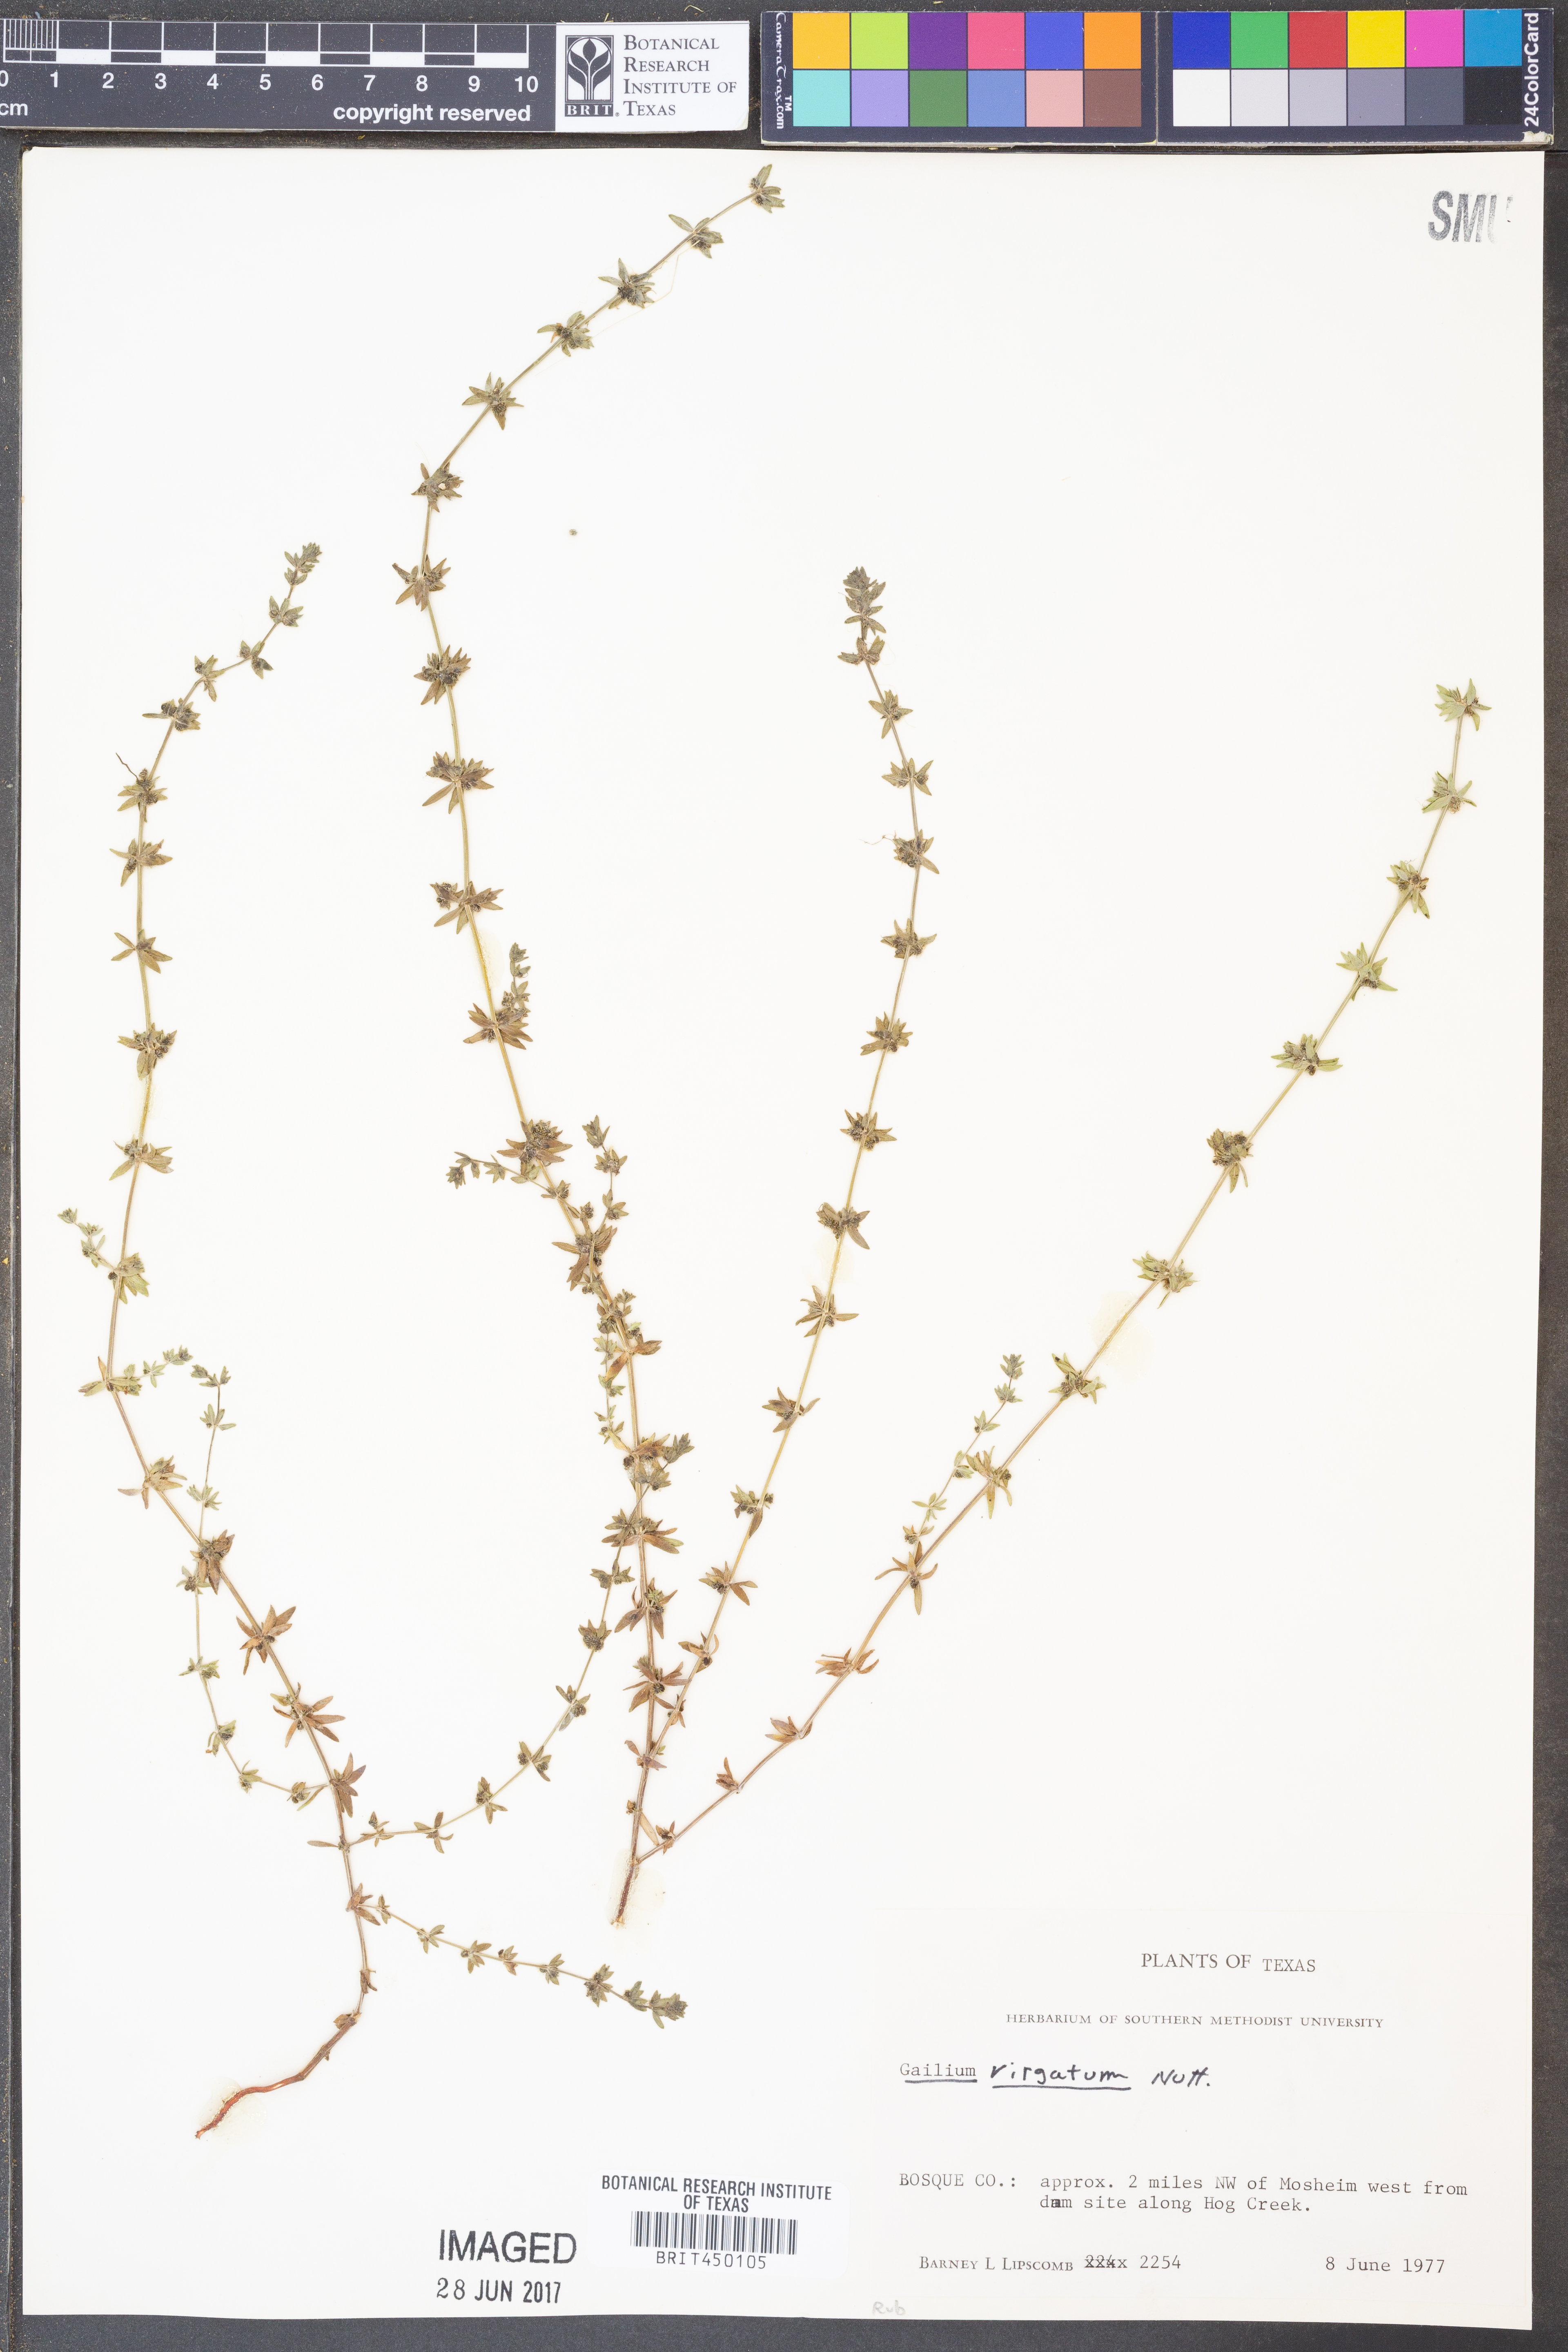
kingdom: Plantae
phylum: Tracheophyta
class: Magnoliopsida
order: Gentianales
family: Rubiaceae
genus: Galium
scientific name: Galium virgatum
